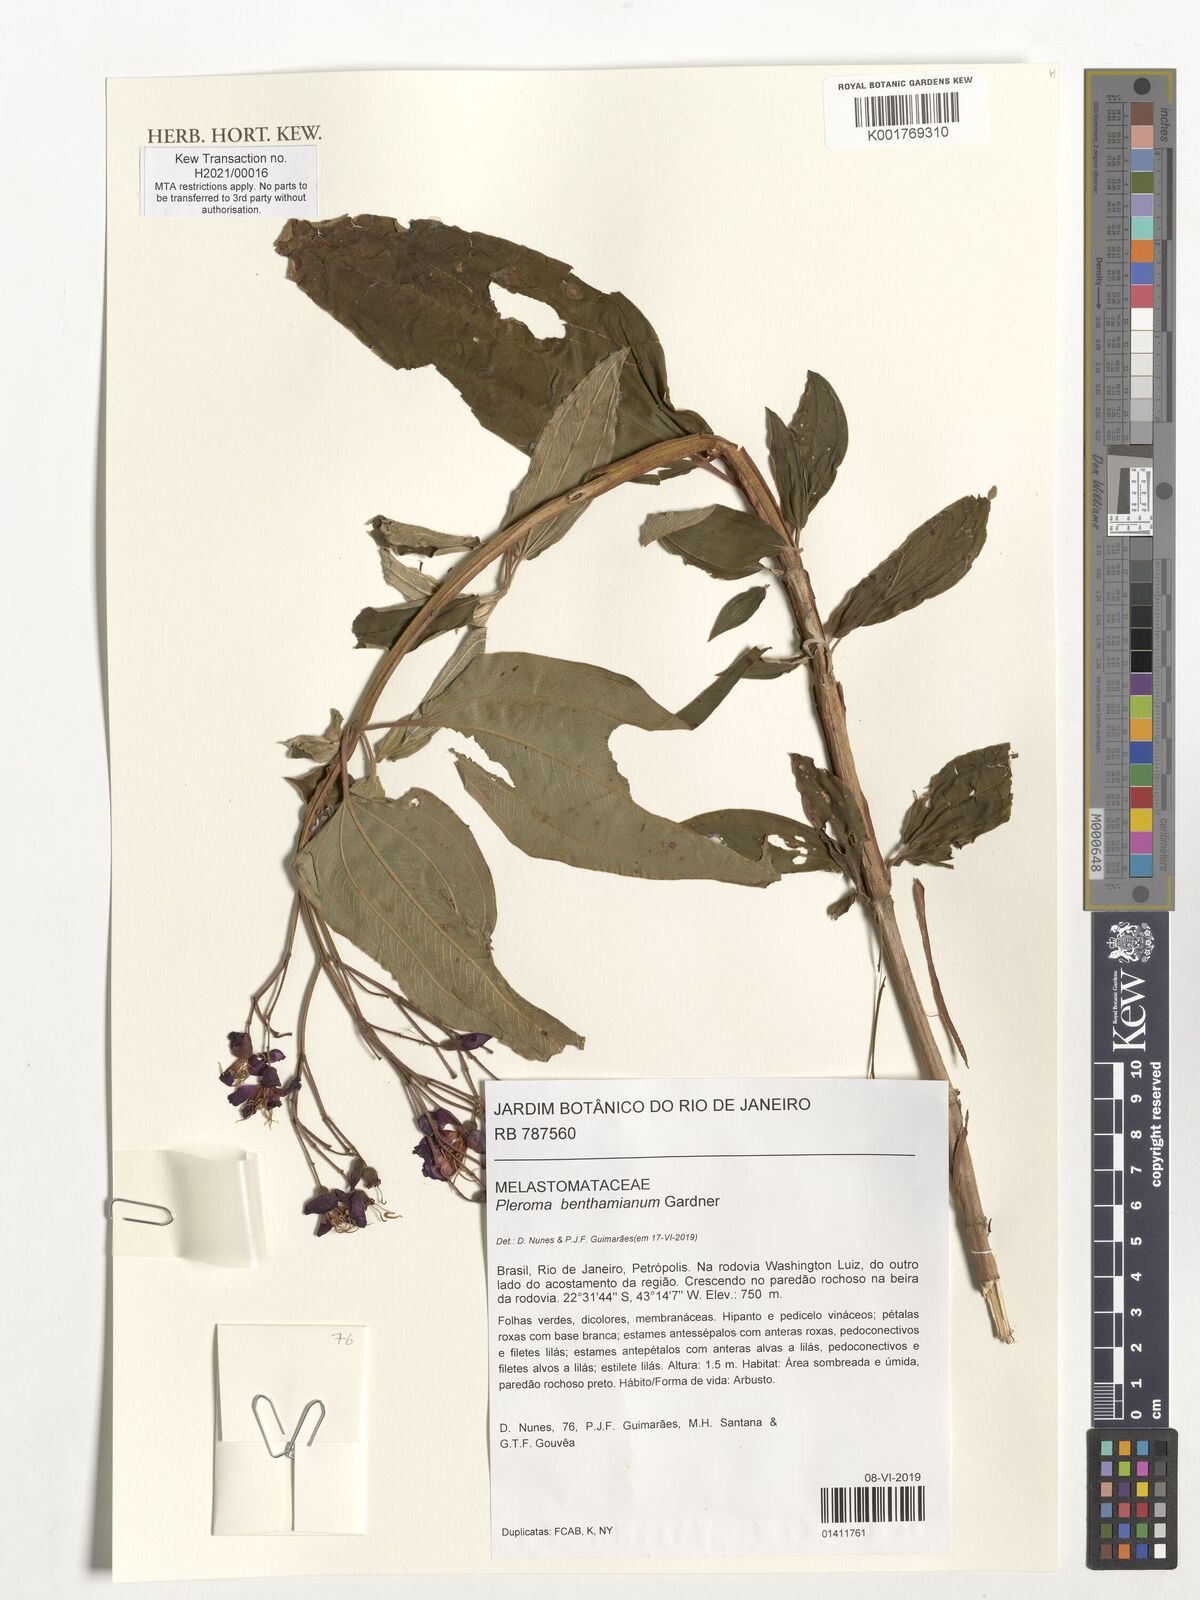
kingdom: Plantae
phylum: Tracheophyta
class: Magnoliopsida
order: Myrtales
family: Melastomataceae
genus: Pleroma
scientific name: Pleroma benthamianum
